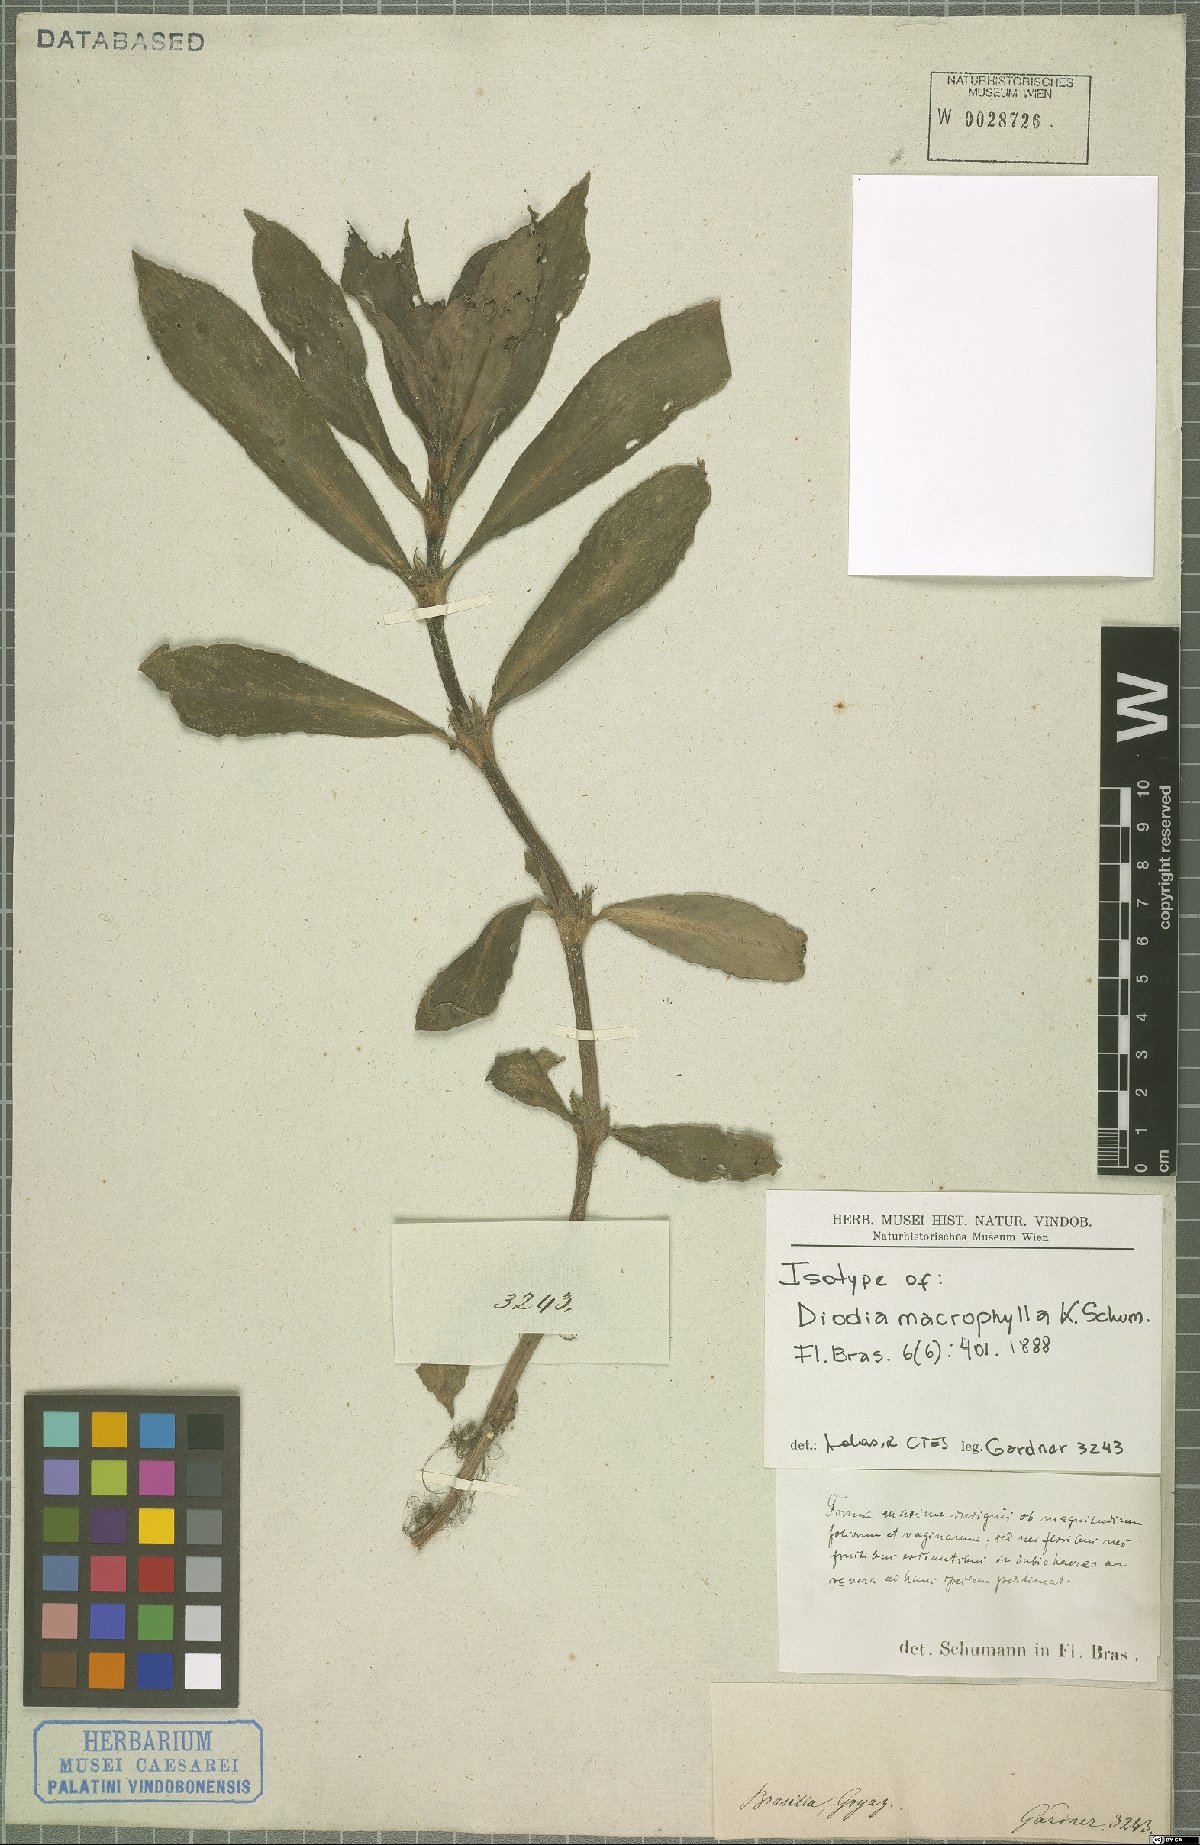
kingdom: Plantae
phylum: Tracheophyta
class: Magnoliopsida
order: Gentianales
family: Rubiaceae
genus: Diodia
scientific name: Diodia macrophylla
